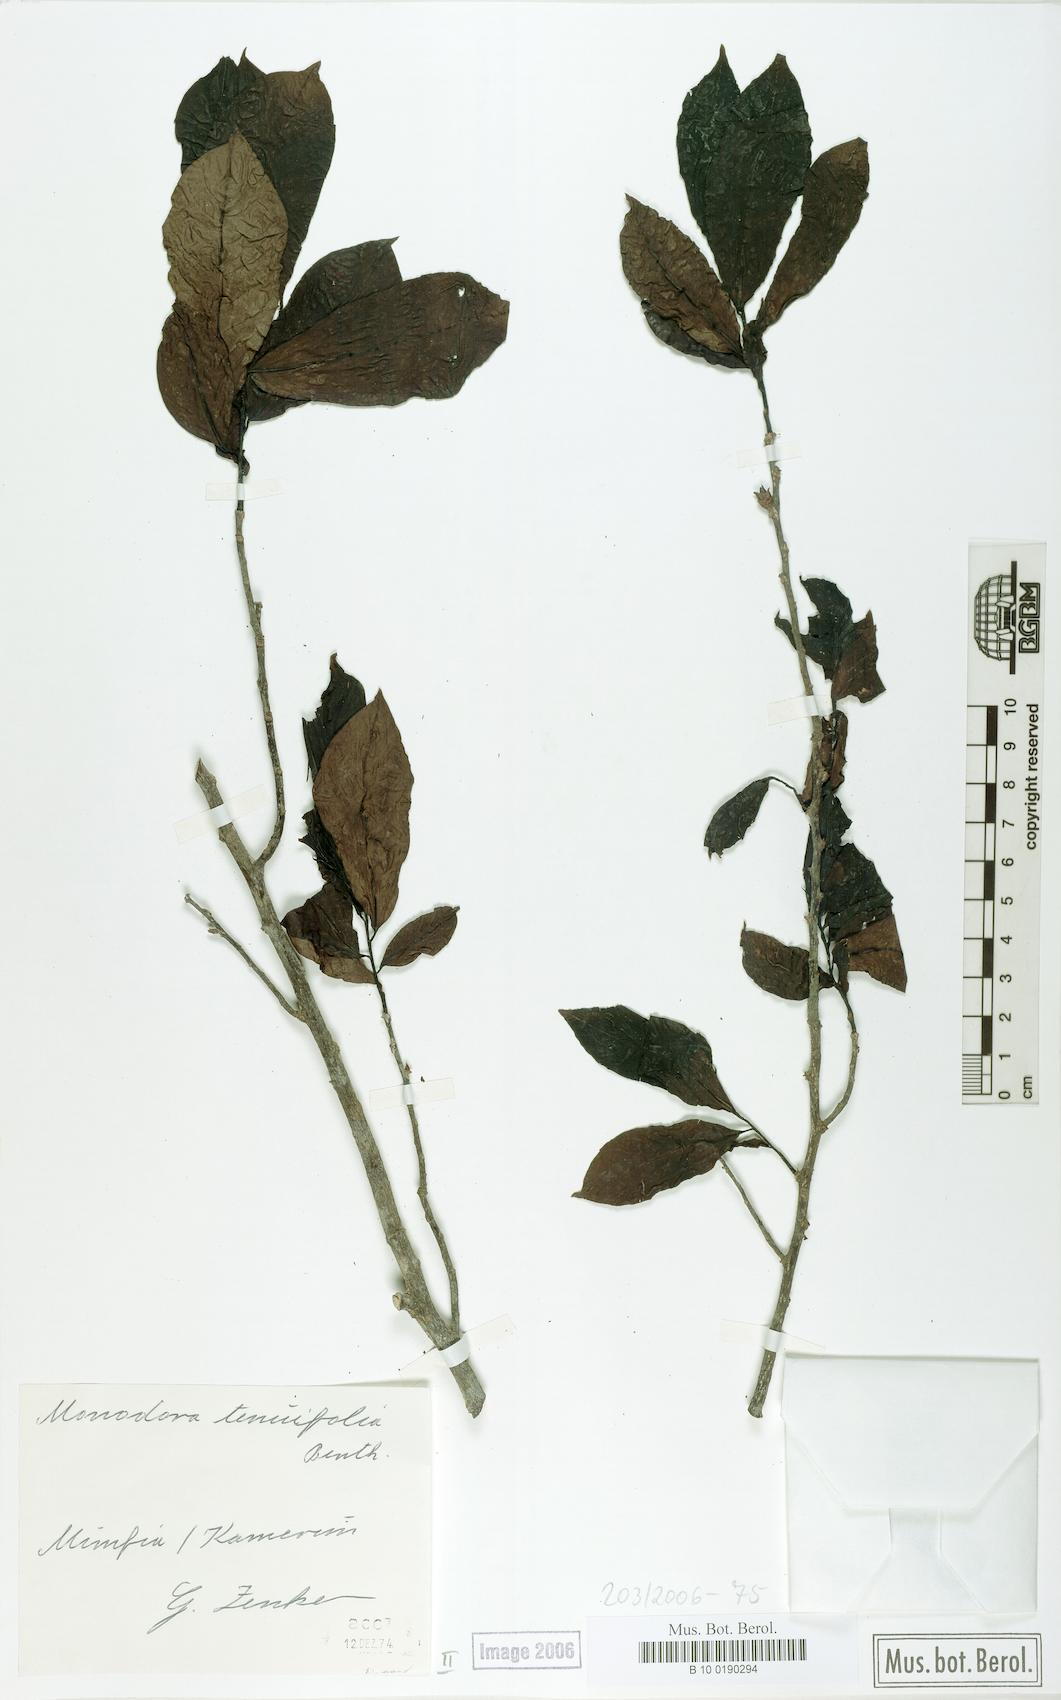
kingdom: Plantae
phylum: Tracheophyta
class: Magnoliopsida
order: Magnoliales
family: Annonaceae
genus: Monodora
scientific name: Monodora tenuifolia
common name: Orchidtree
